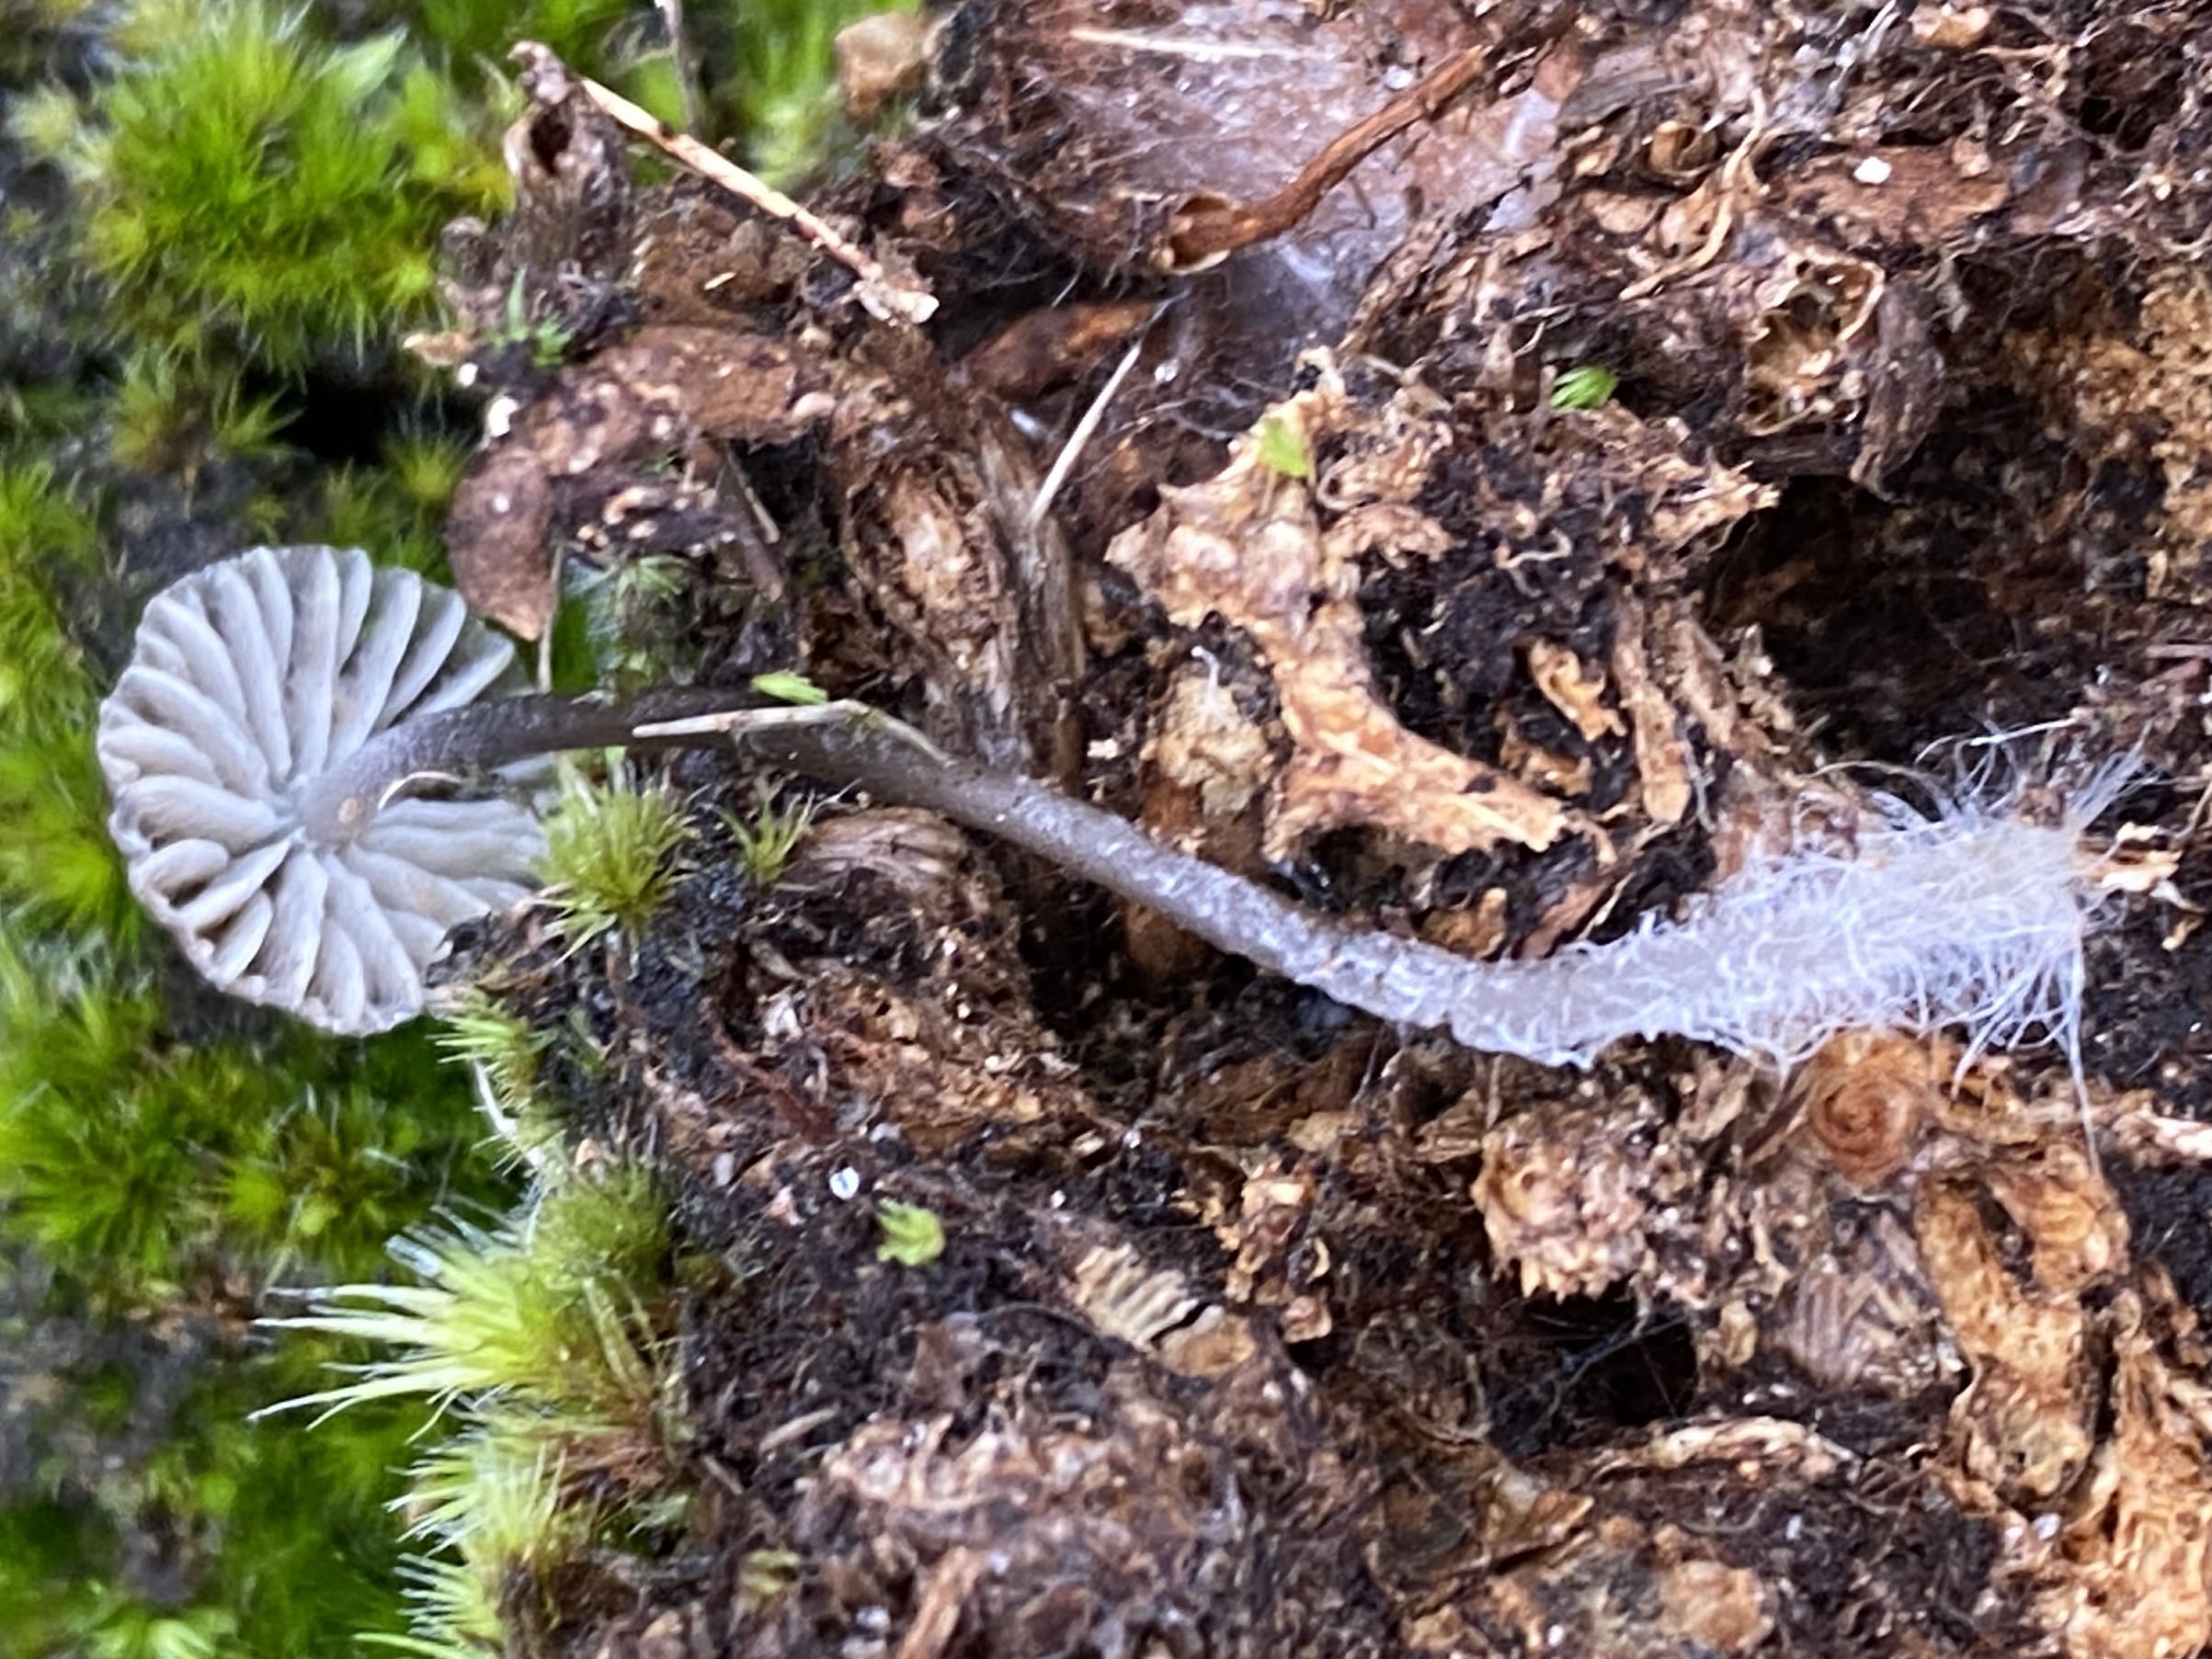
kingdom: Fungi
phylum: Basidiomycota
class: Agaricomycetes
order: Agaricales
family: Mycenaceae
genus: Mycena
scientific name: Mycena
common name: huesvamp
